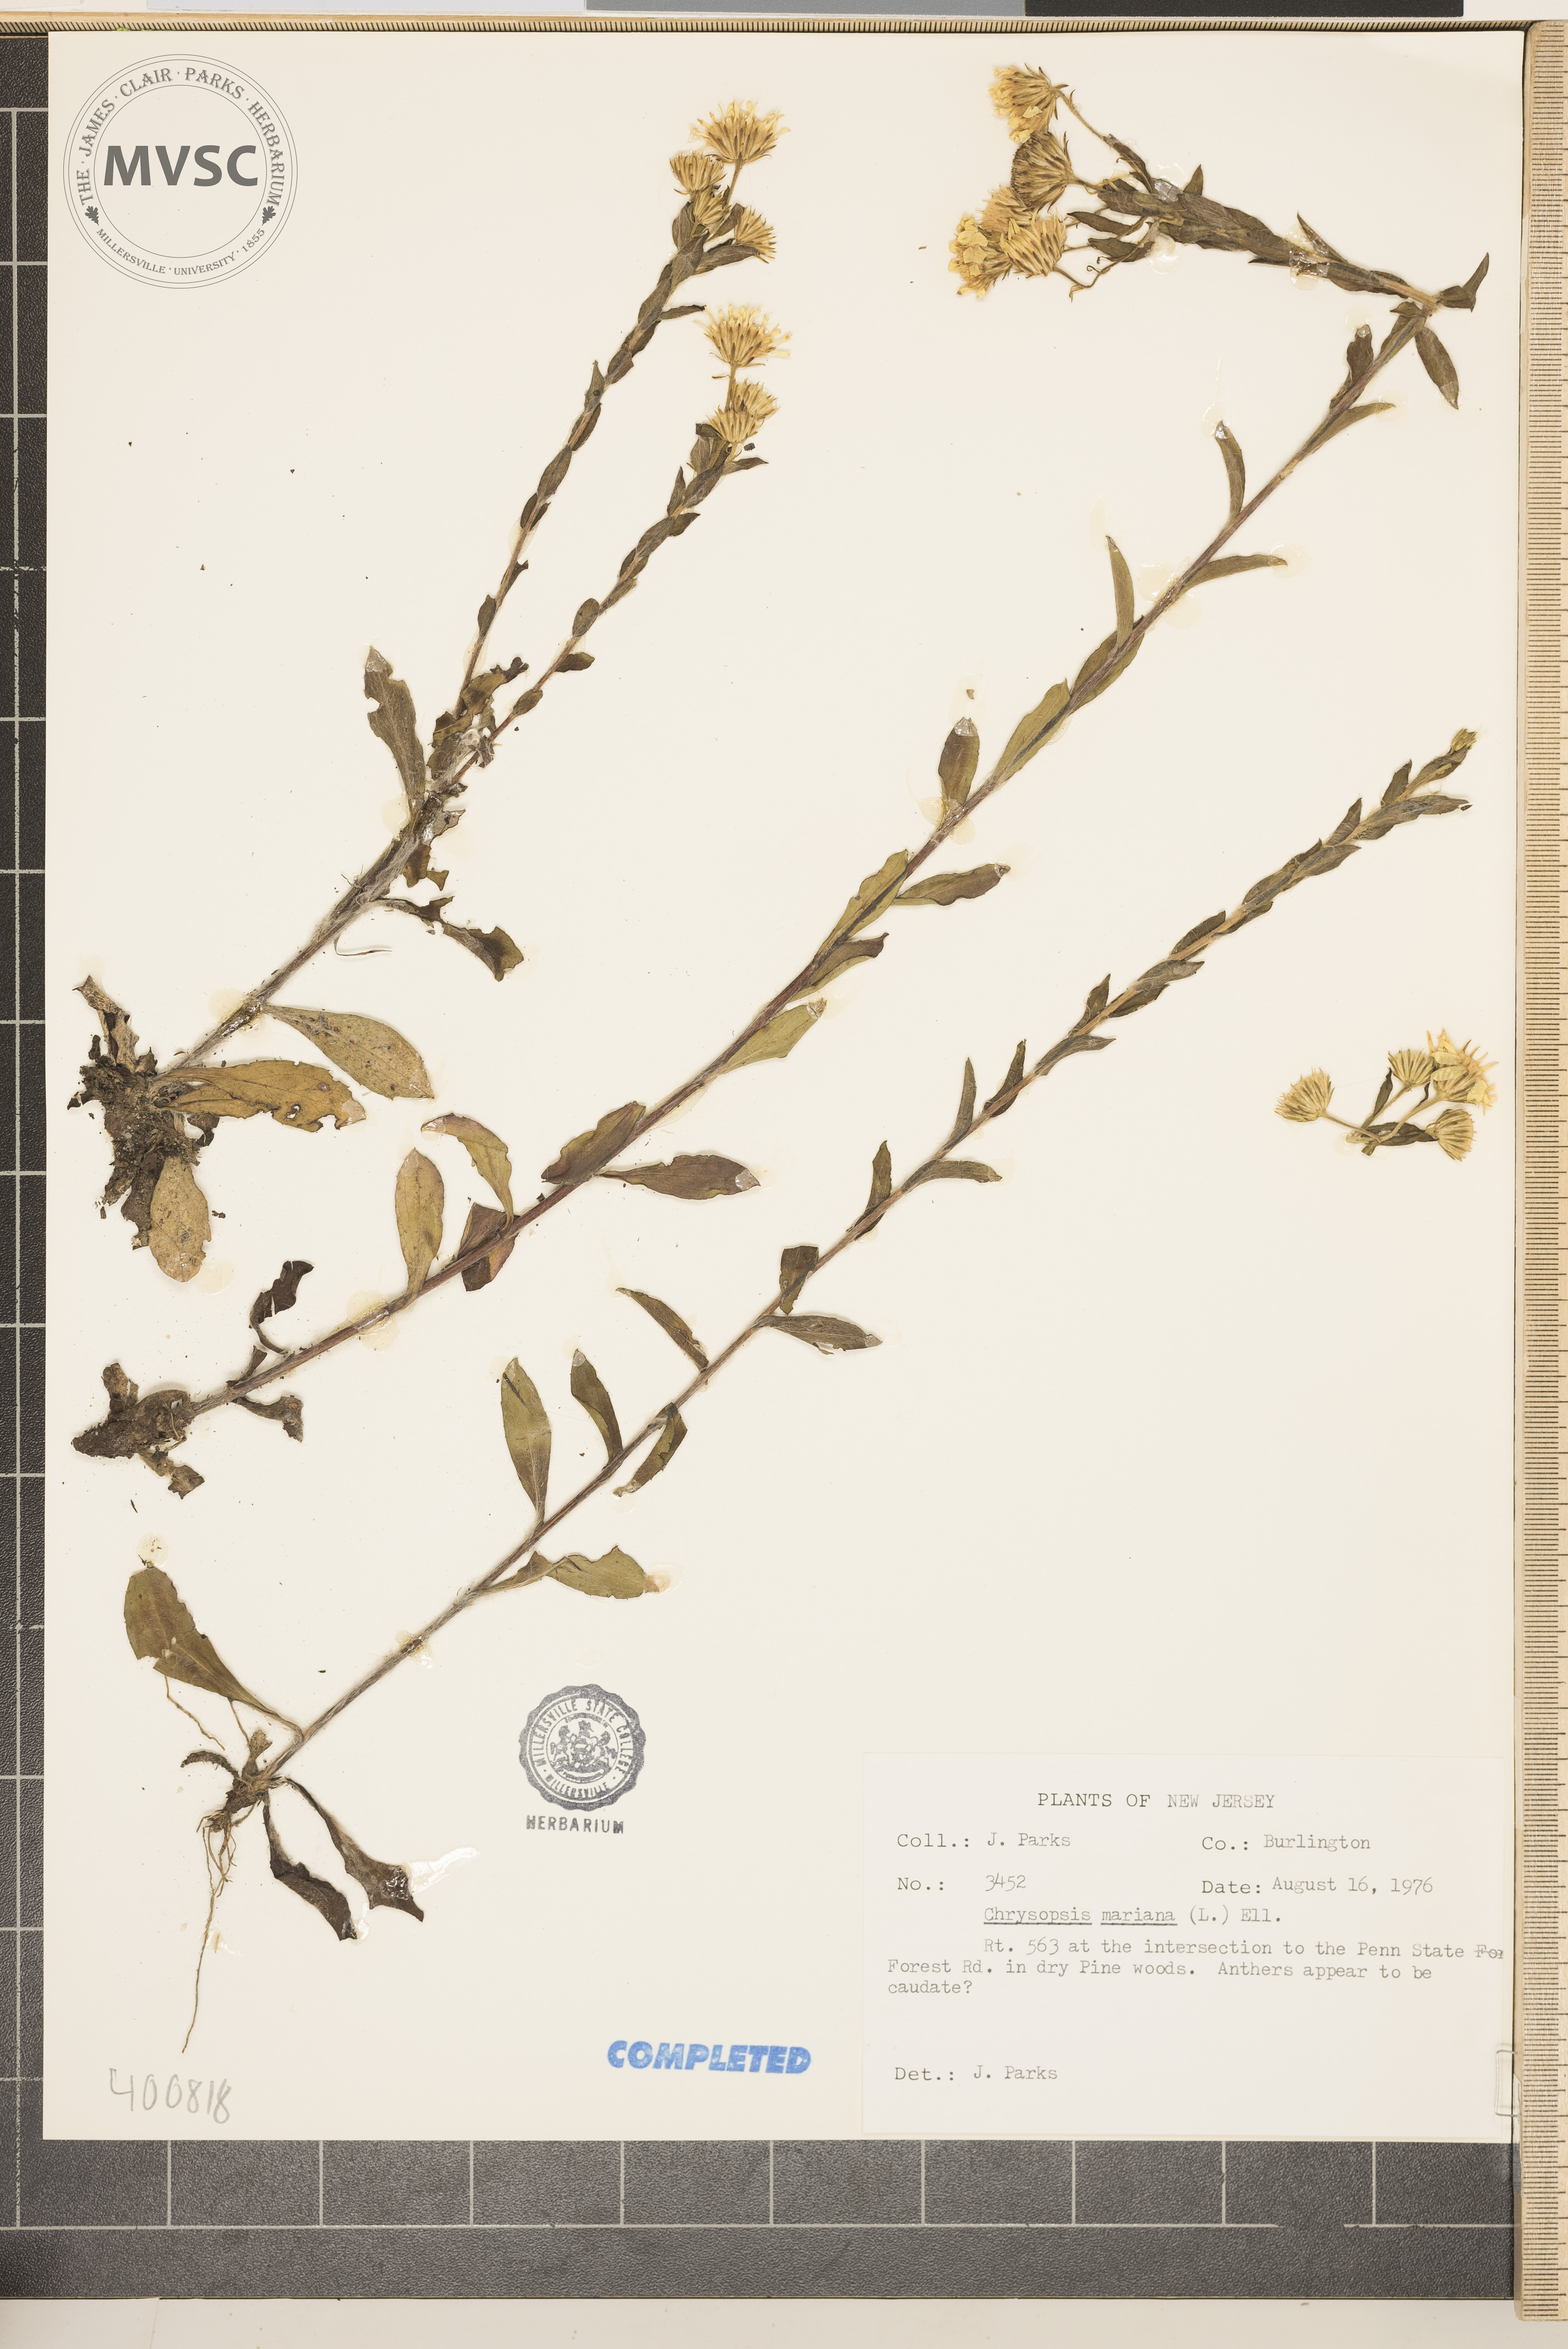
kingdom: Plantae
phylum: Tracheophyta
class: Magnoliopsida
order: Asterales
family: Asteraceae
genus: Chrysopsis
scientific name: Chrysopsis mariana
